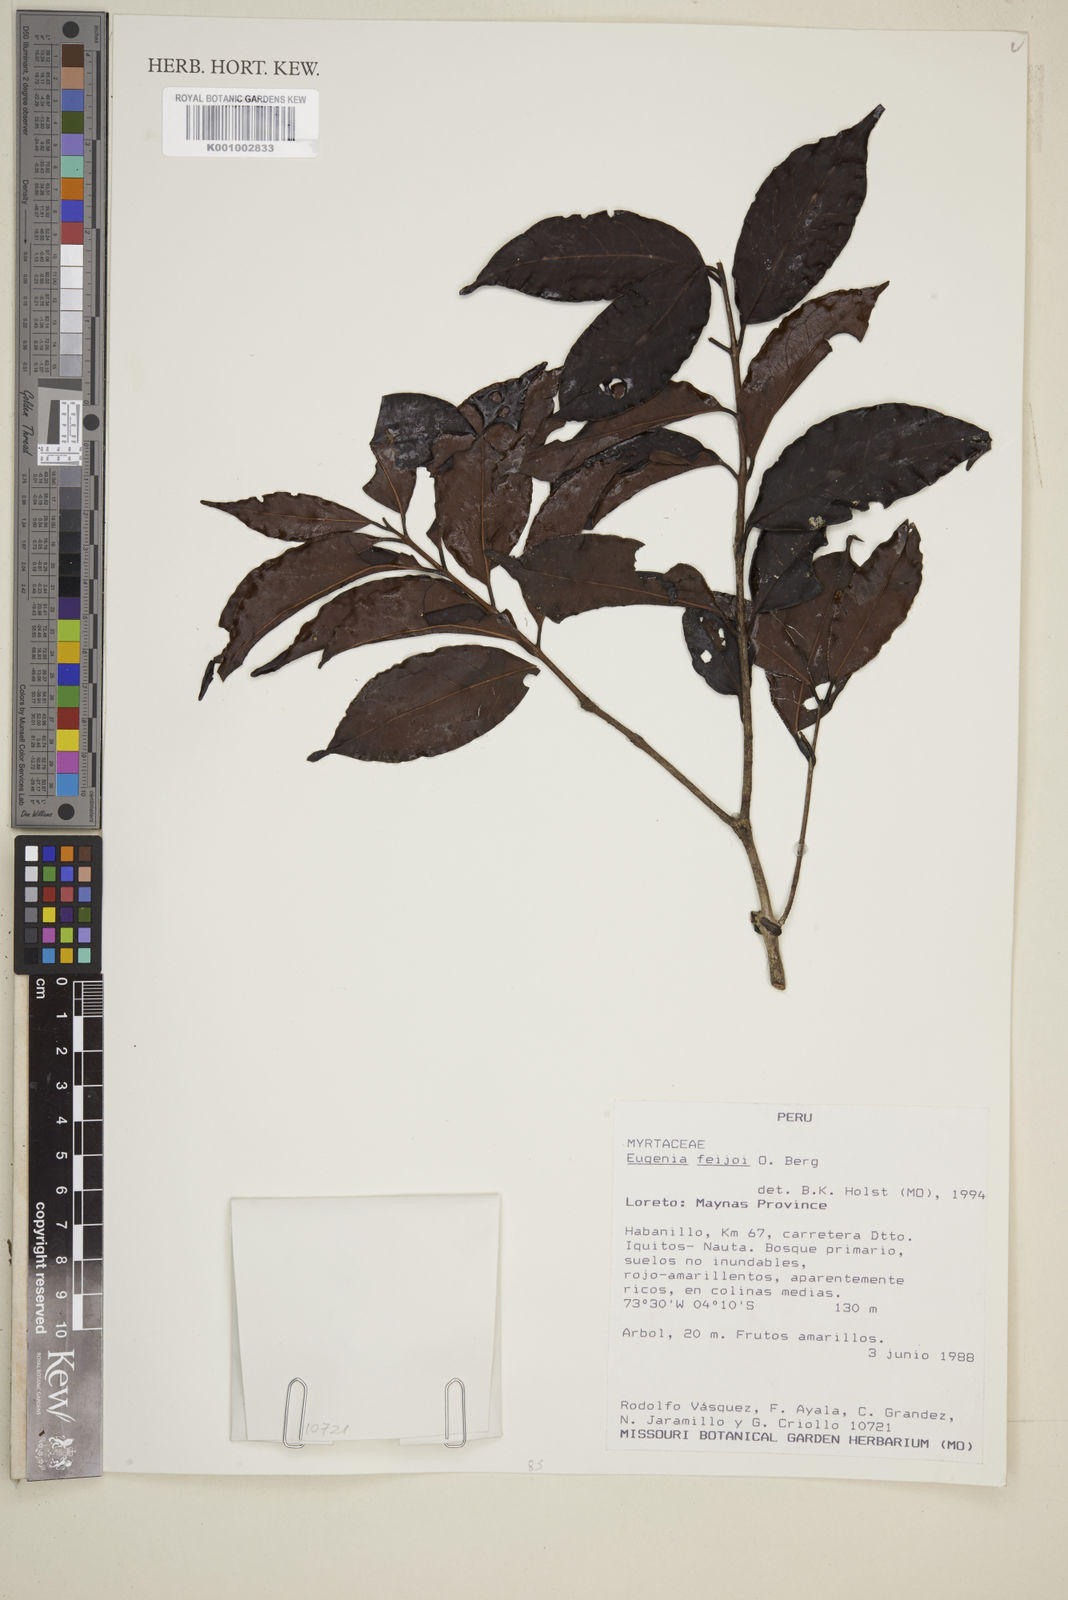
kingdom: Plantae
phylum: Tracheophyta
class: Magnoliopsida
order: Myrtales
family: Myrtaceae
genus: Eugenia
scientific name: Eugenia feijoi
